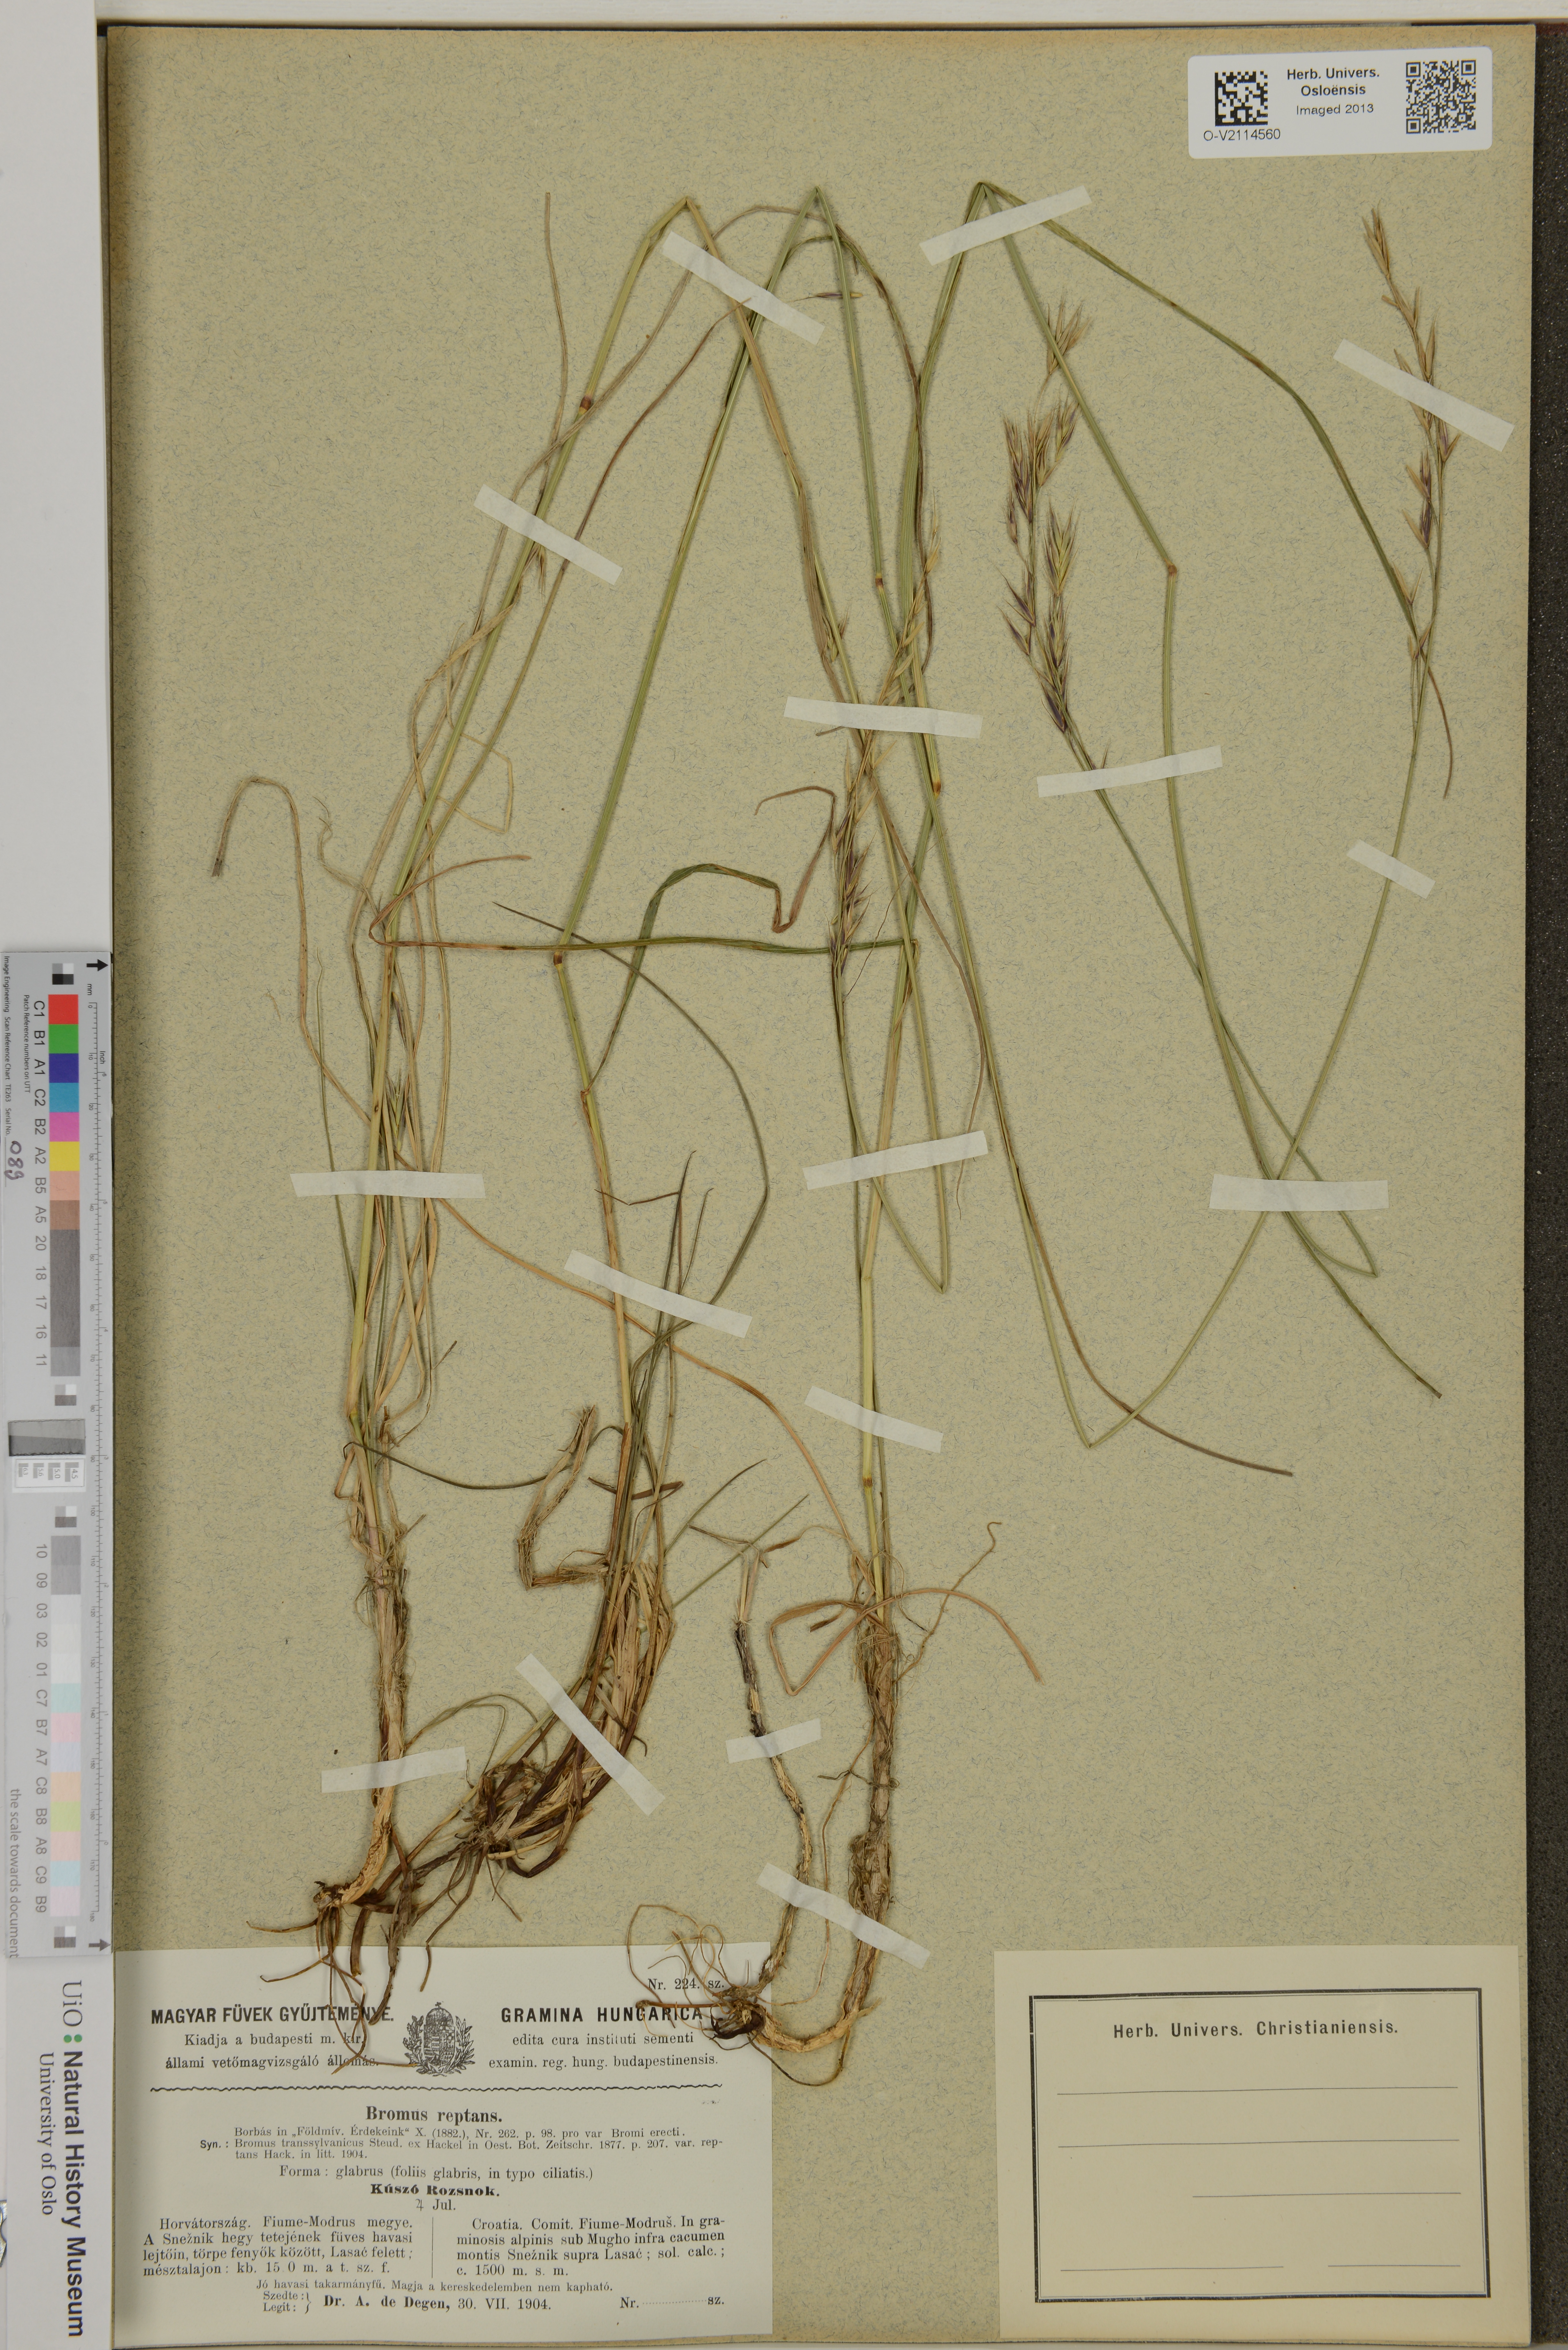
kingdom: Plantae
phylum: Tracheophyta
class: Liliopsida
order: Poales
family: Poaceae
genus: Bromus
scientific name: Bromus pannonicus
